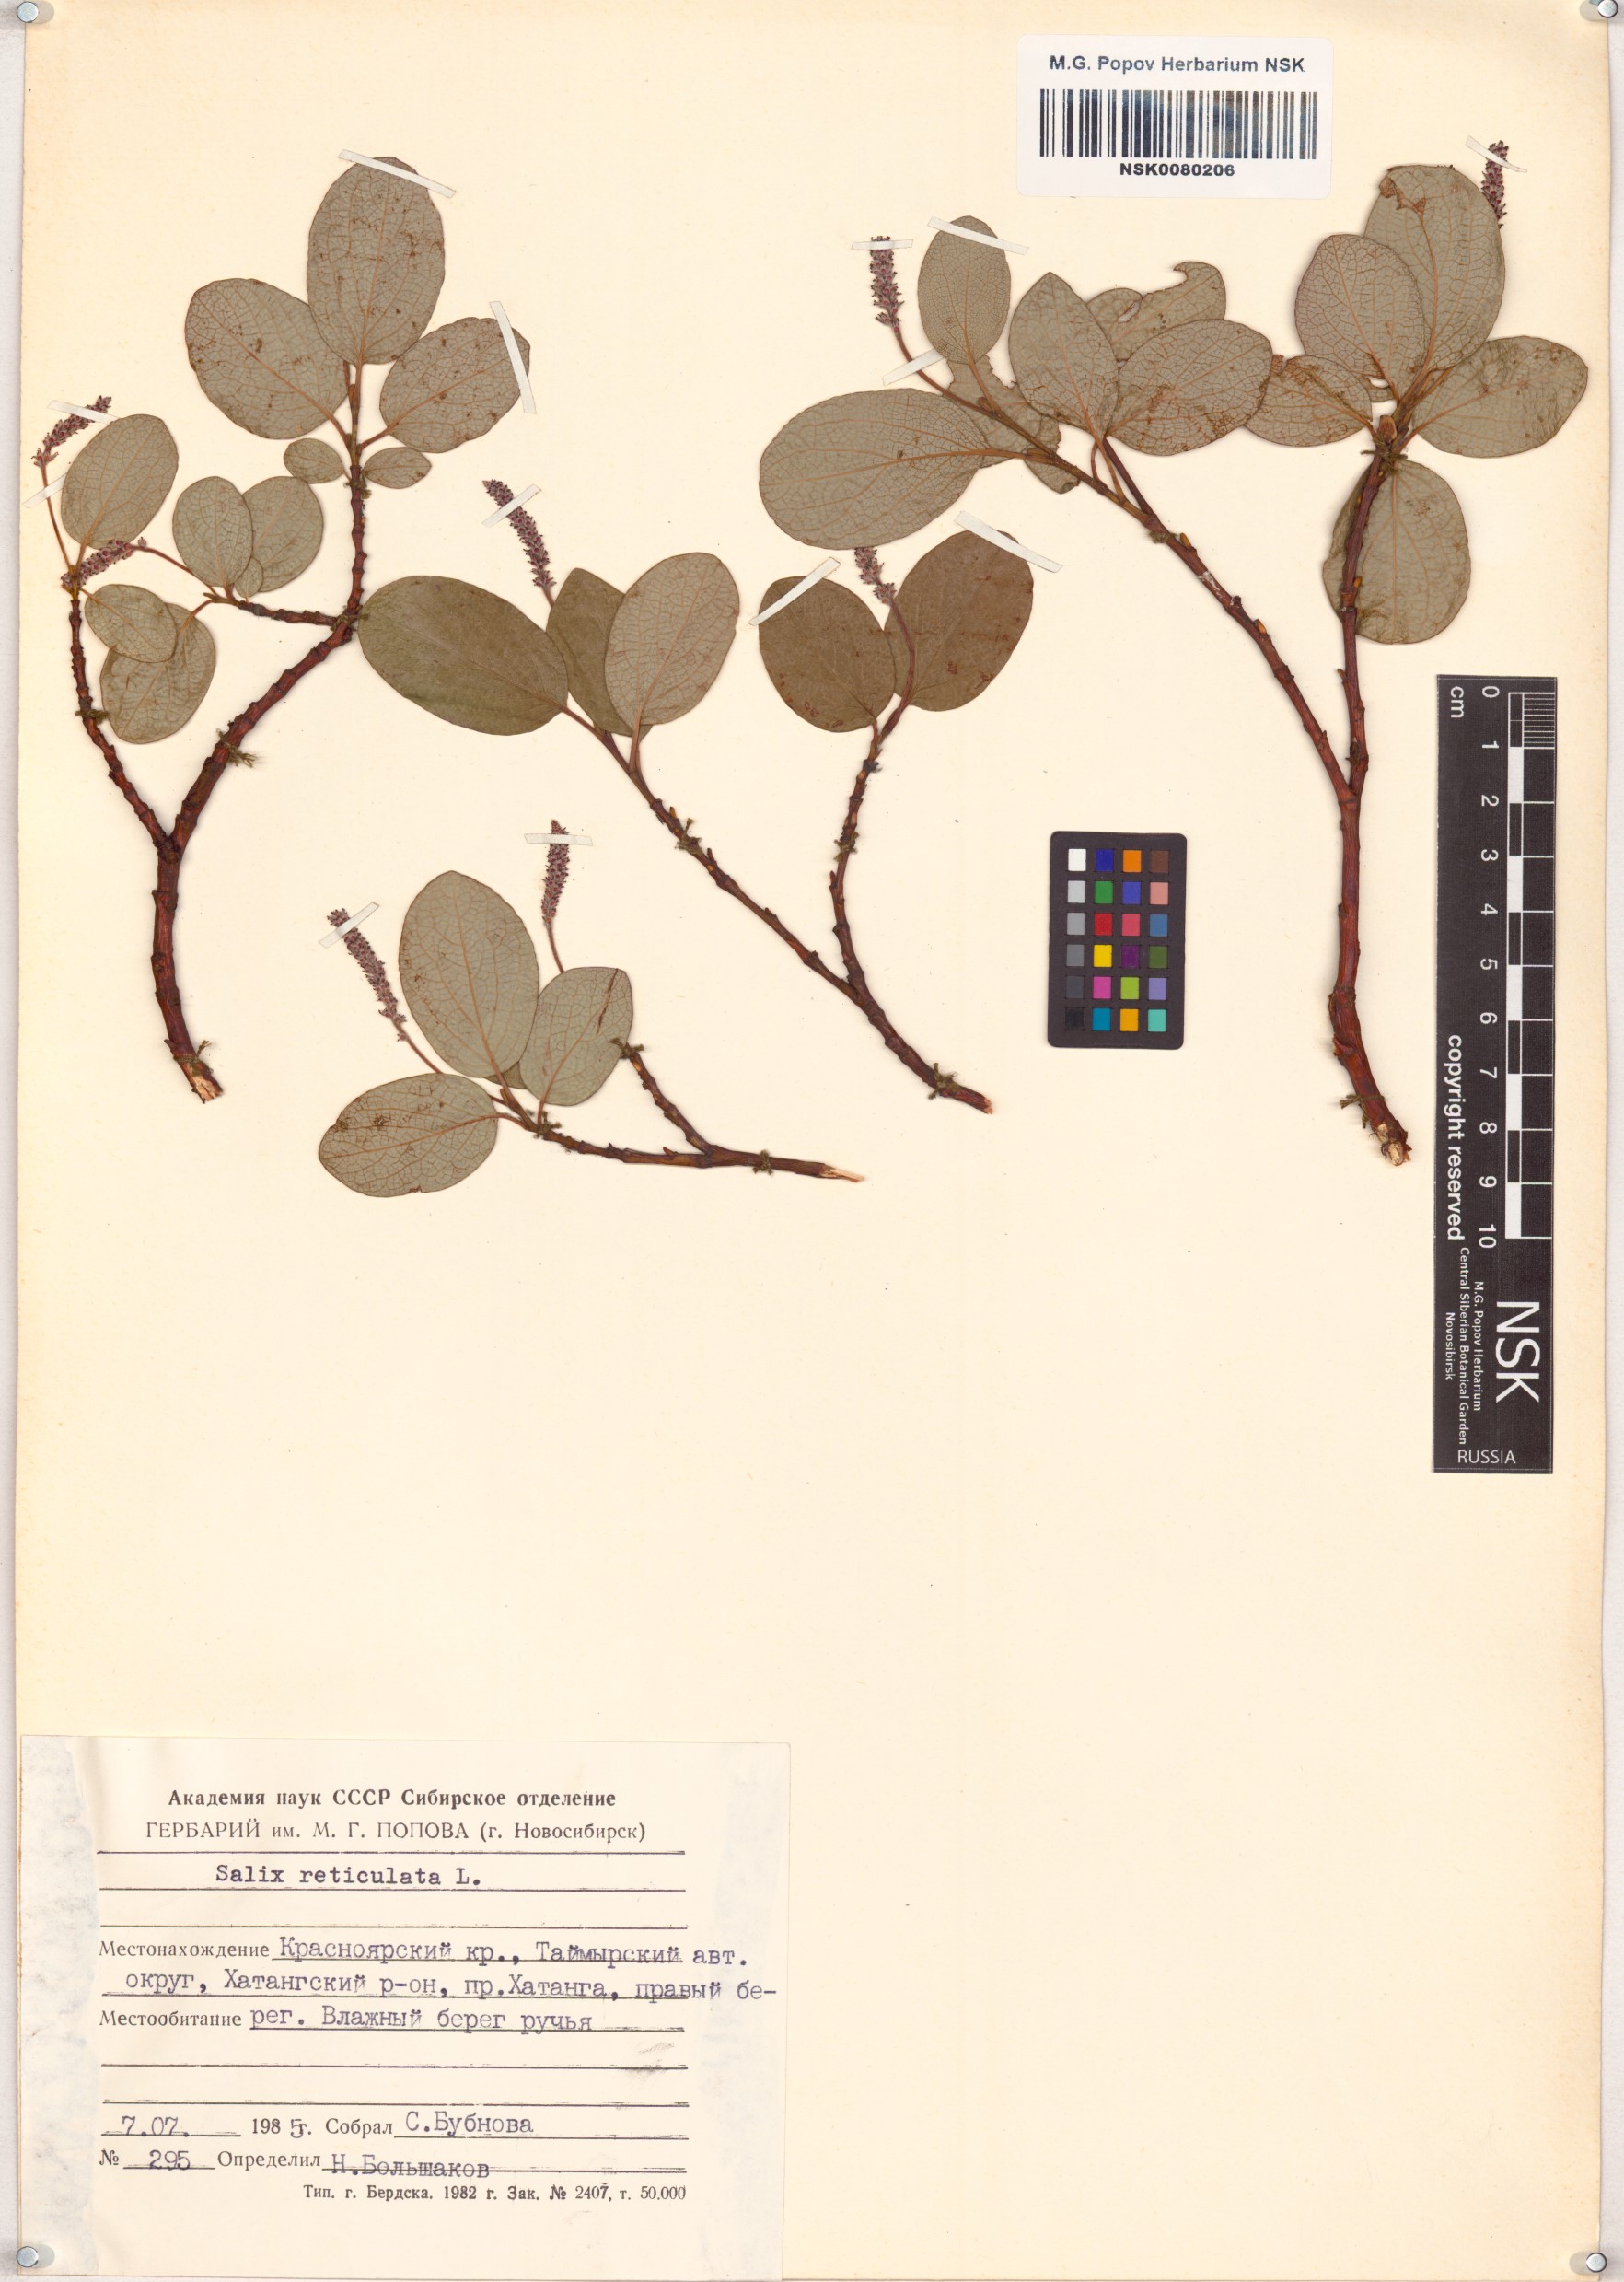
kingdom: Plantae
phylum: Tracheophyta
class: Magnoliopsida
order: Malpighiales
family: Salicaceae
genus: Salix
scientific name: Salix reticulata
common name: Net-leaved willow
